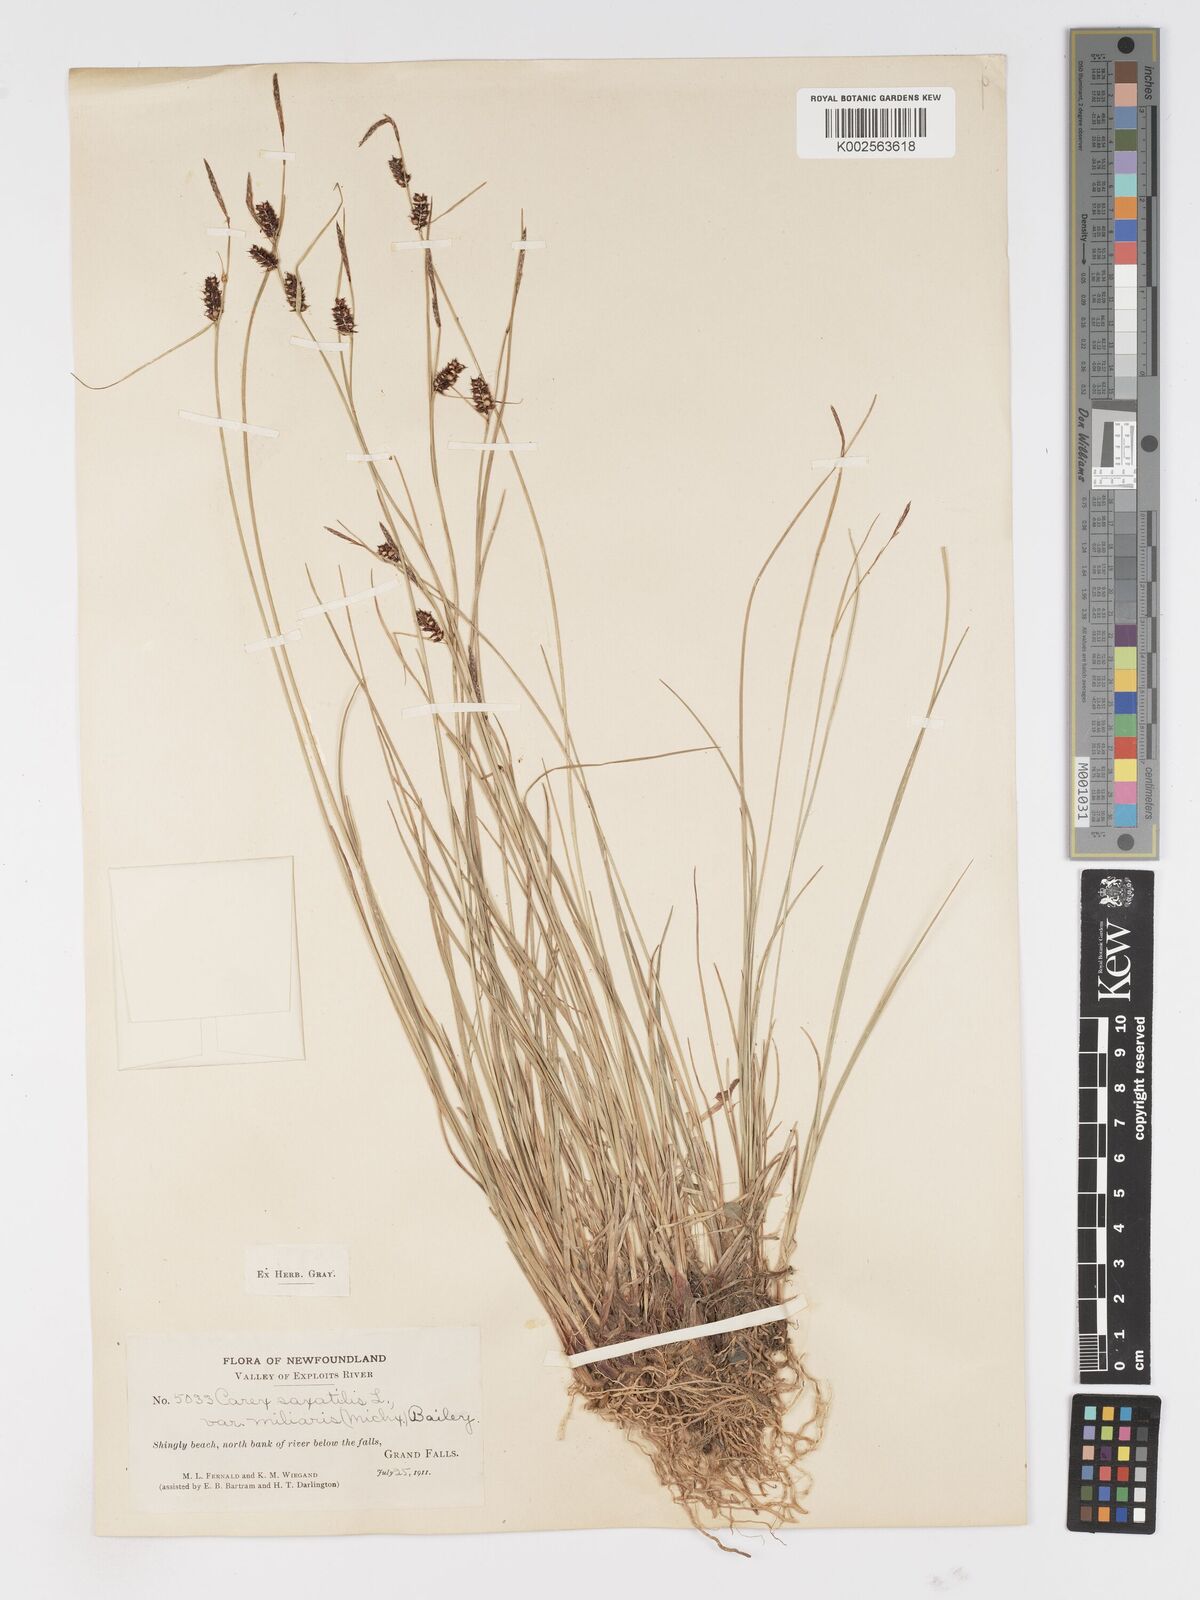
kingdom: Plantae
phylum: Tracheophyta
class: Liliopsida
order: Poales
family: Cyperaceae
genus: Carex
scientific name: Carex
